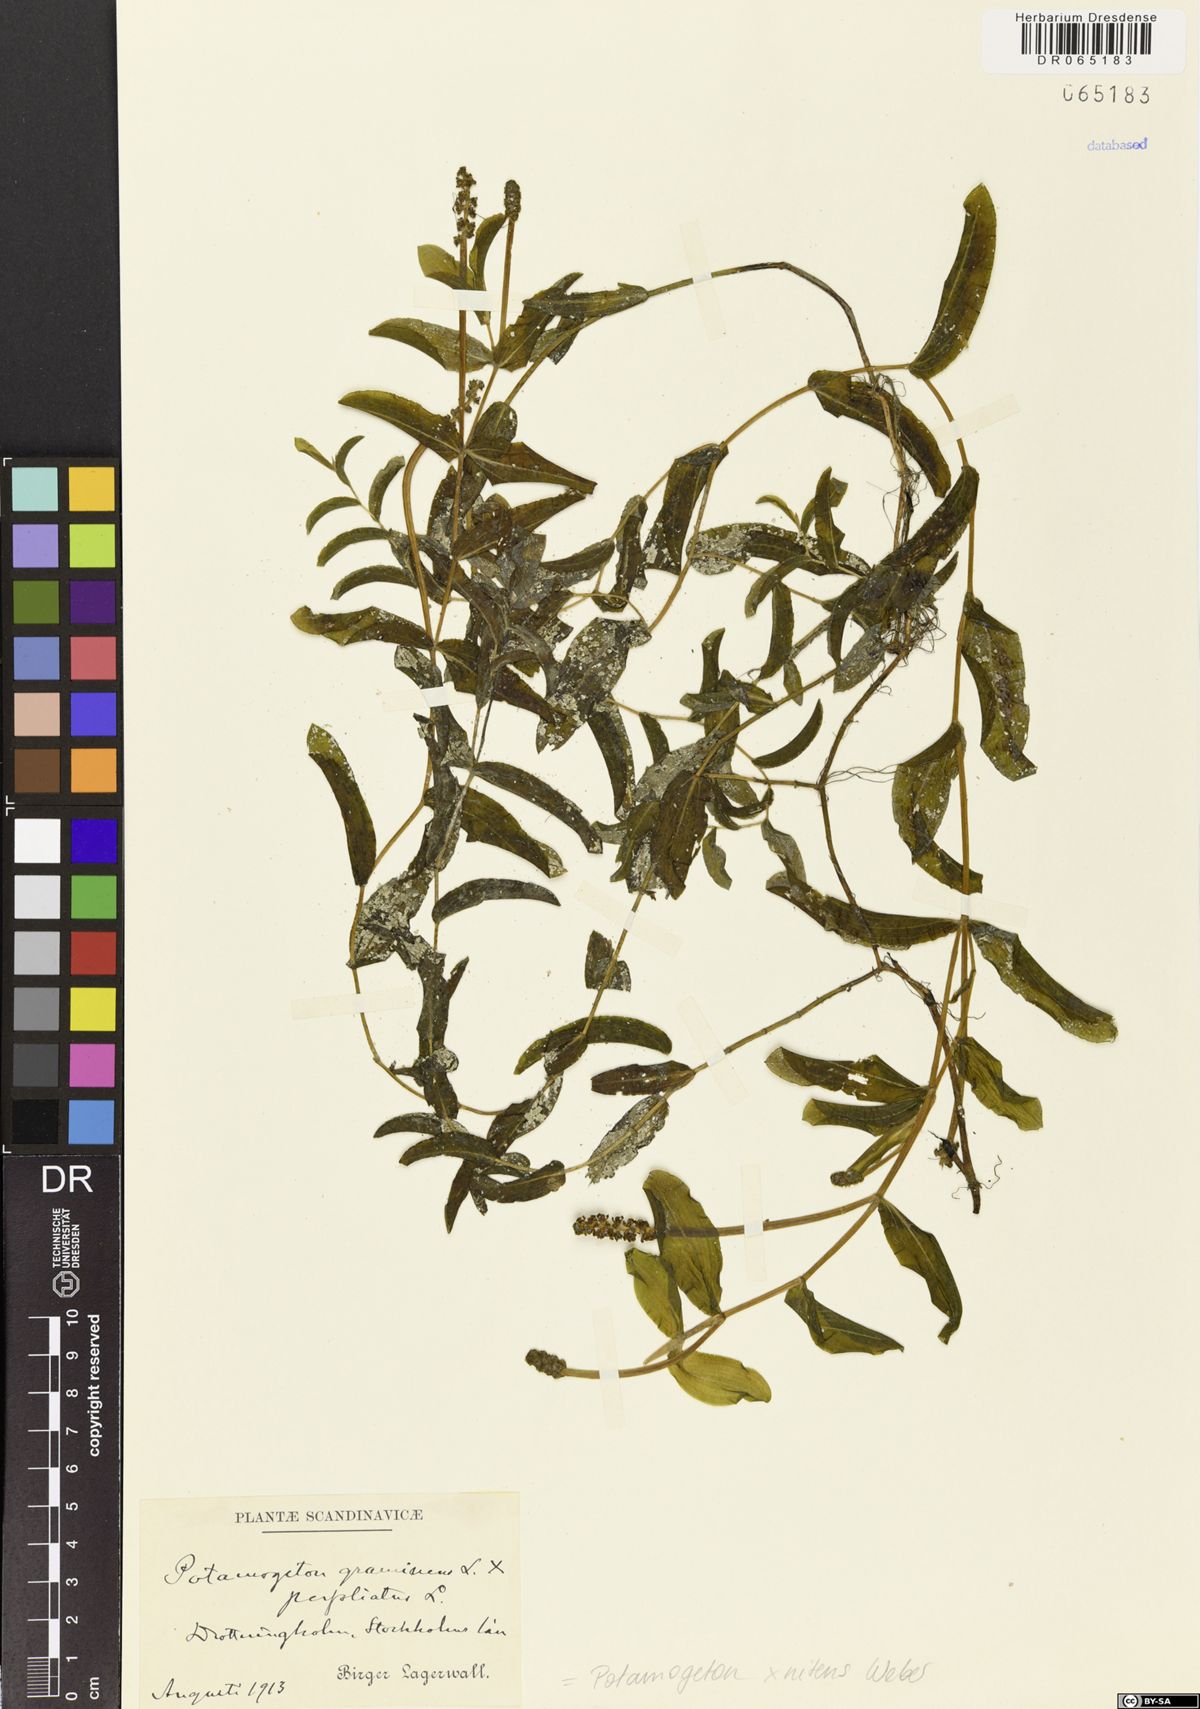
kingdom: Plantae
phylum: Tracheophyta
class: Liliopsida
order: Alismatales
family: Potamogetonaceae
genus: Potamogeton
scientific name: Potamogeton nitens
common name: Pondweed
